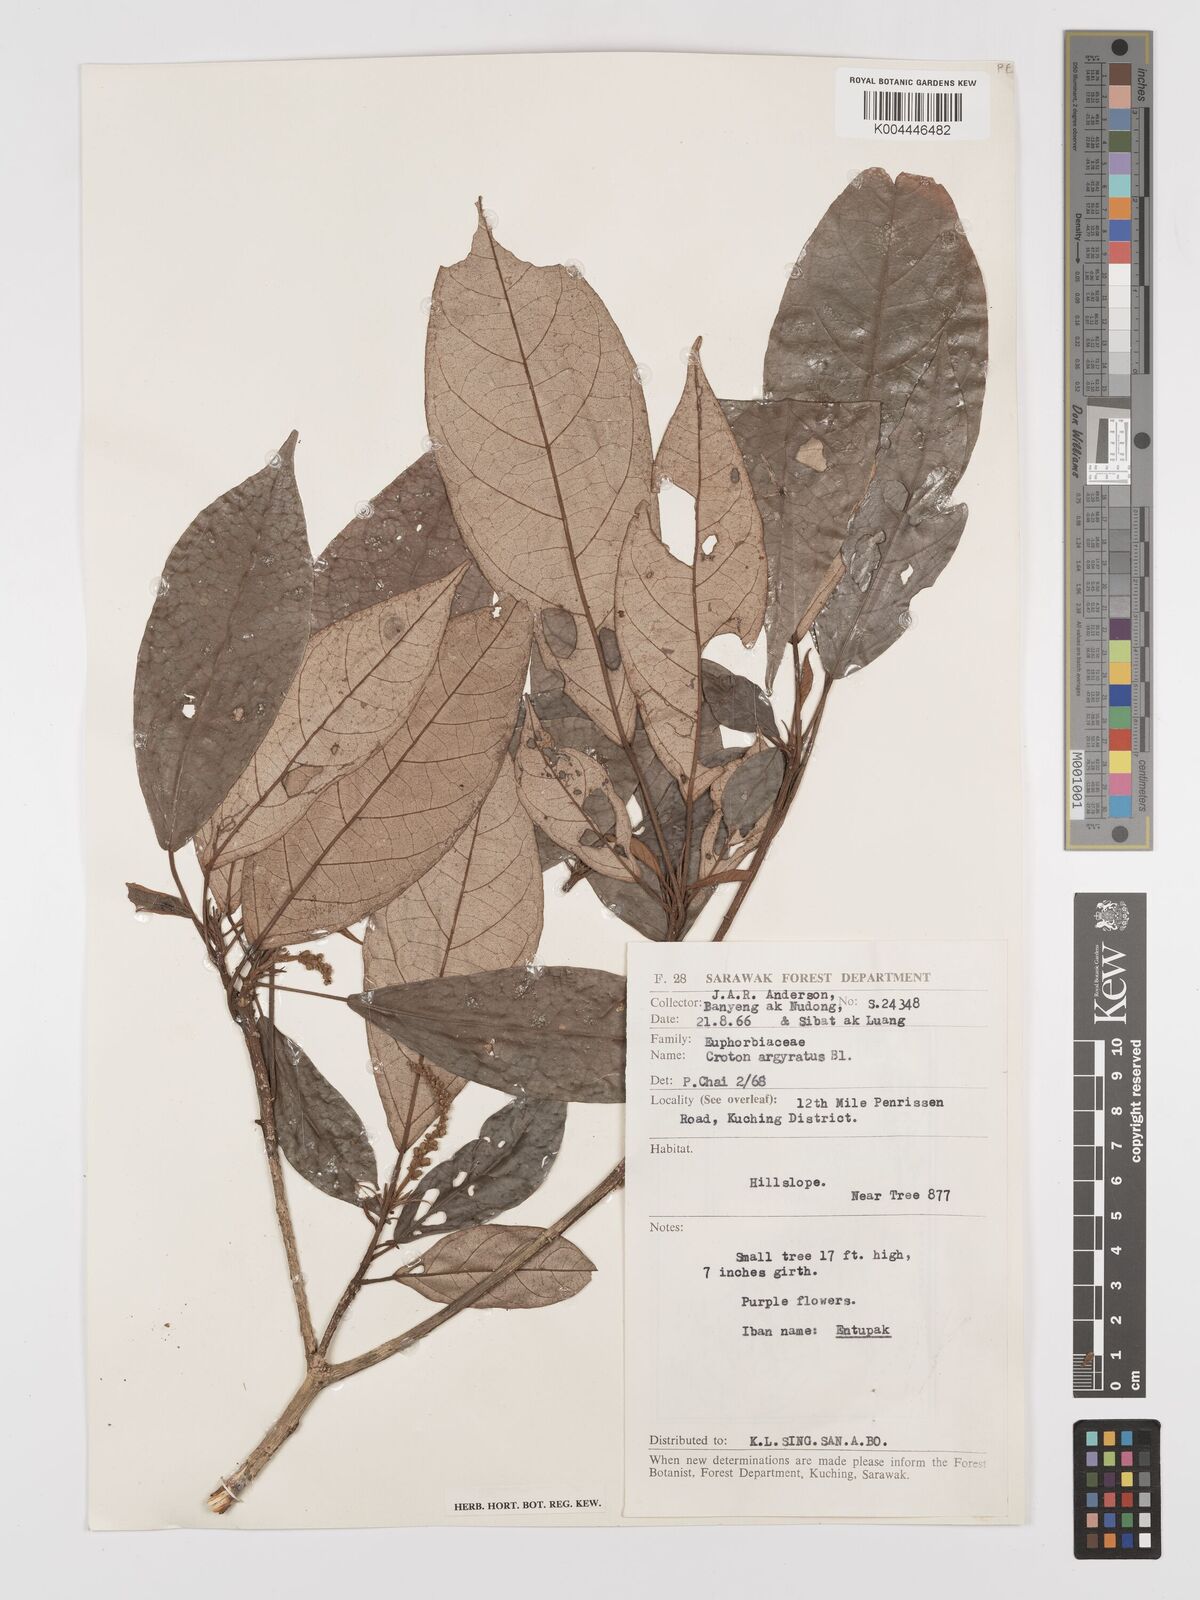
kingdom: Plantae
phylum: Tracheophyta
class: Magnoliopsida
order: Malpighiales
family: Euphorbiaceae
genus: Croton
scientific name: Croton argyratus
